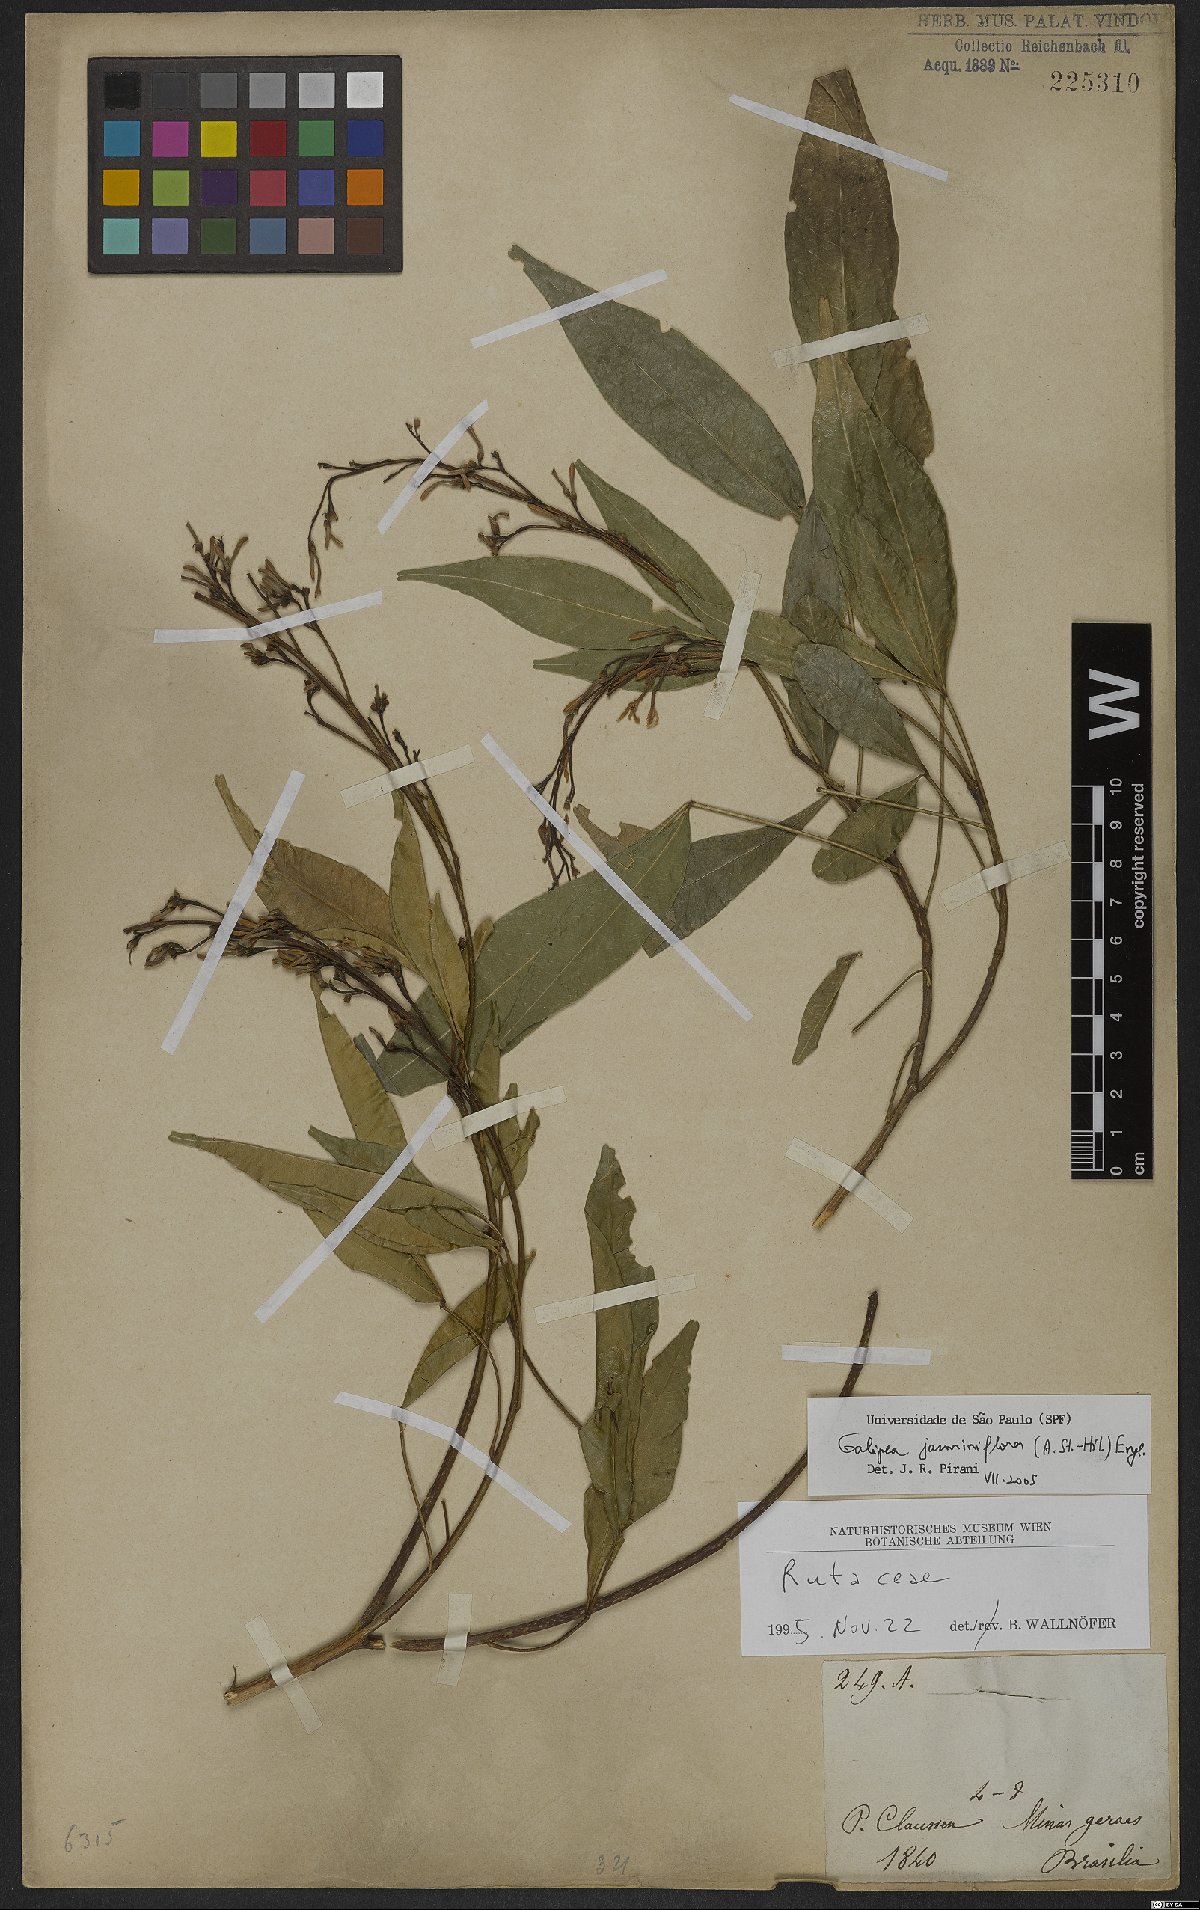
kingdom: Plantae
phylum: Tracheophyta
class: Magnoliopsida
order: Sapindales
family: Rutaceae
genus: Galipea
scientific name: Galipea jasminiflora
